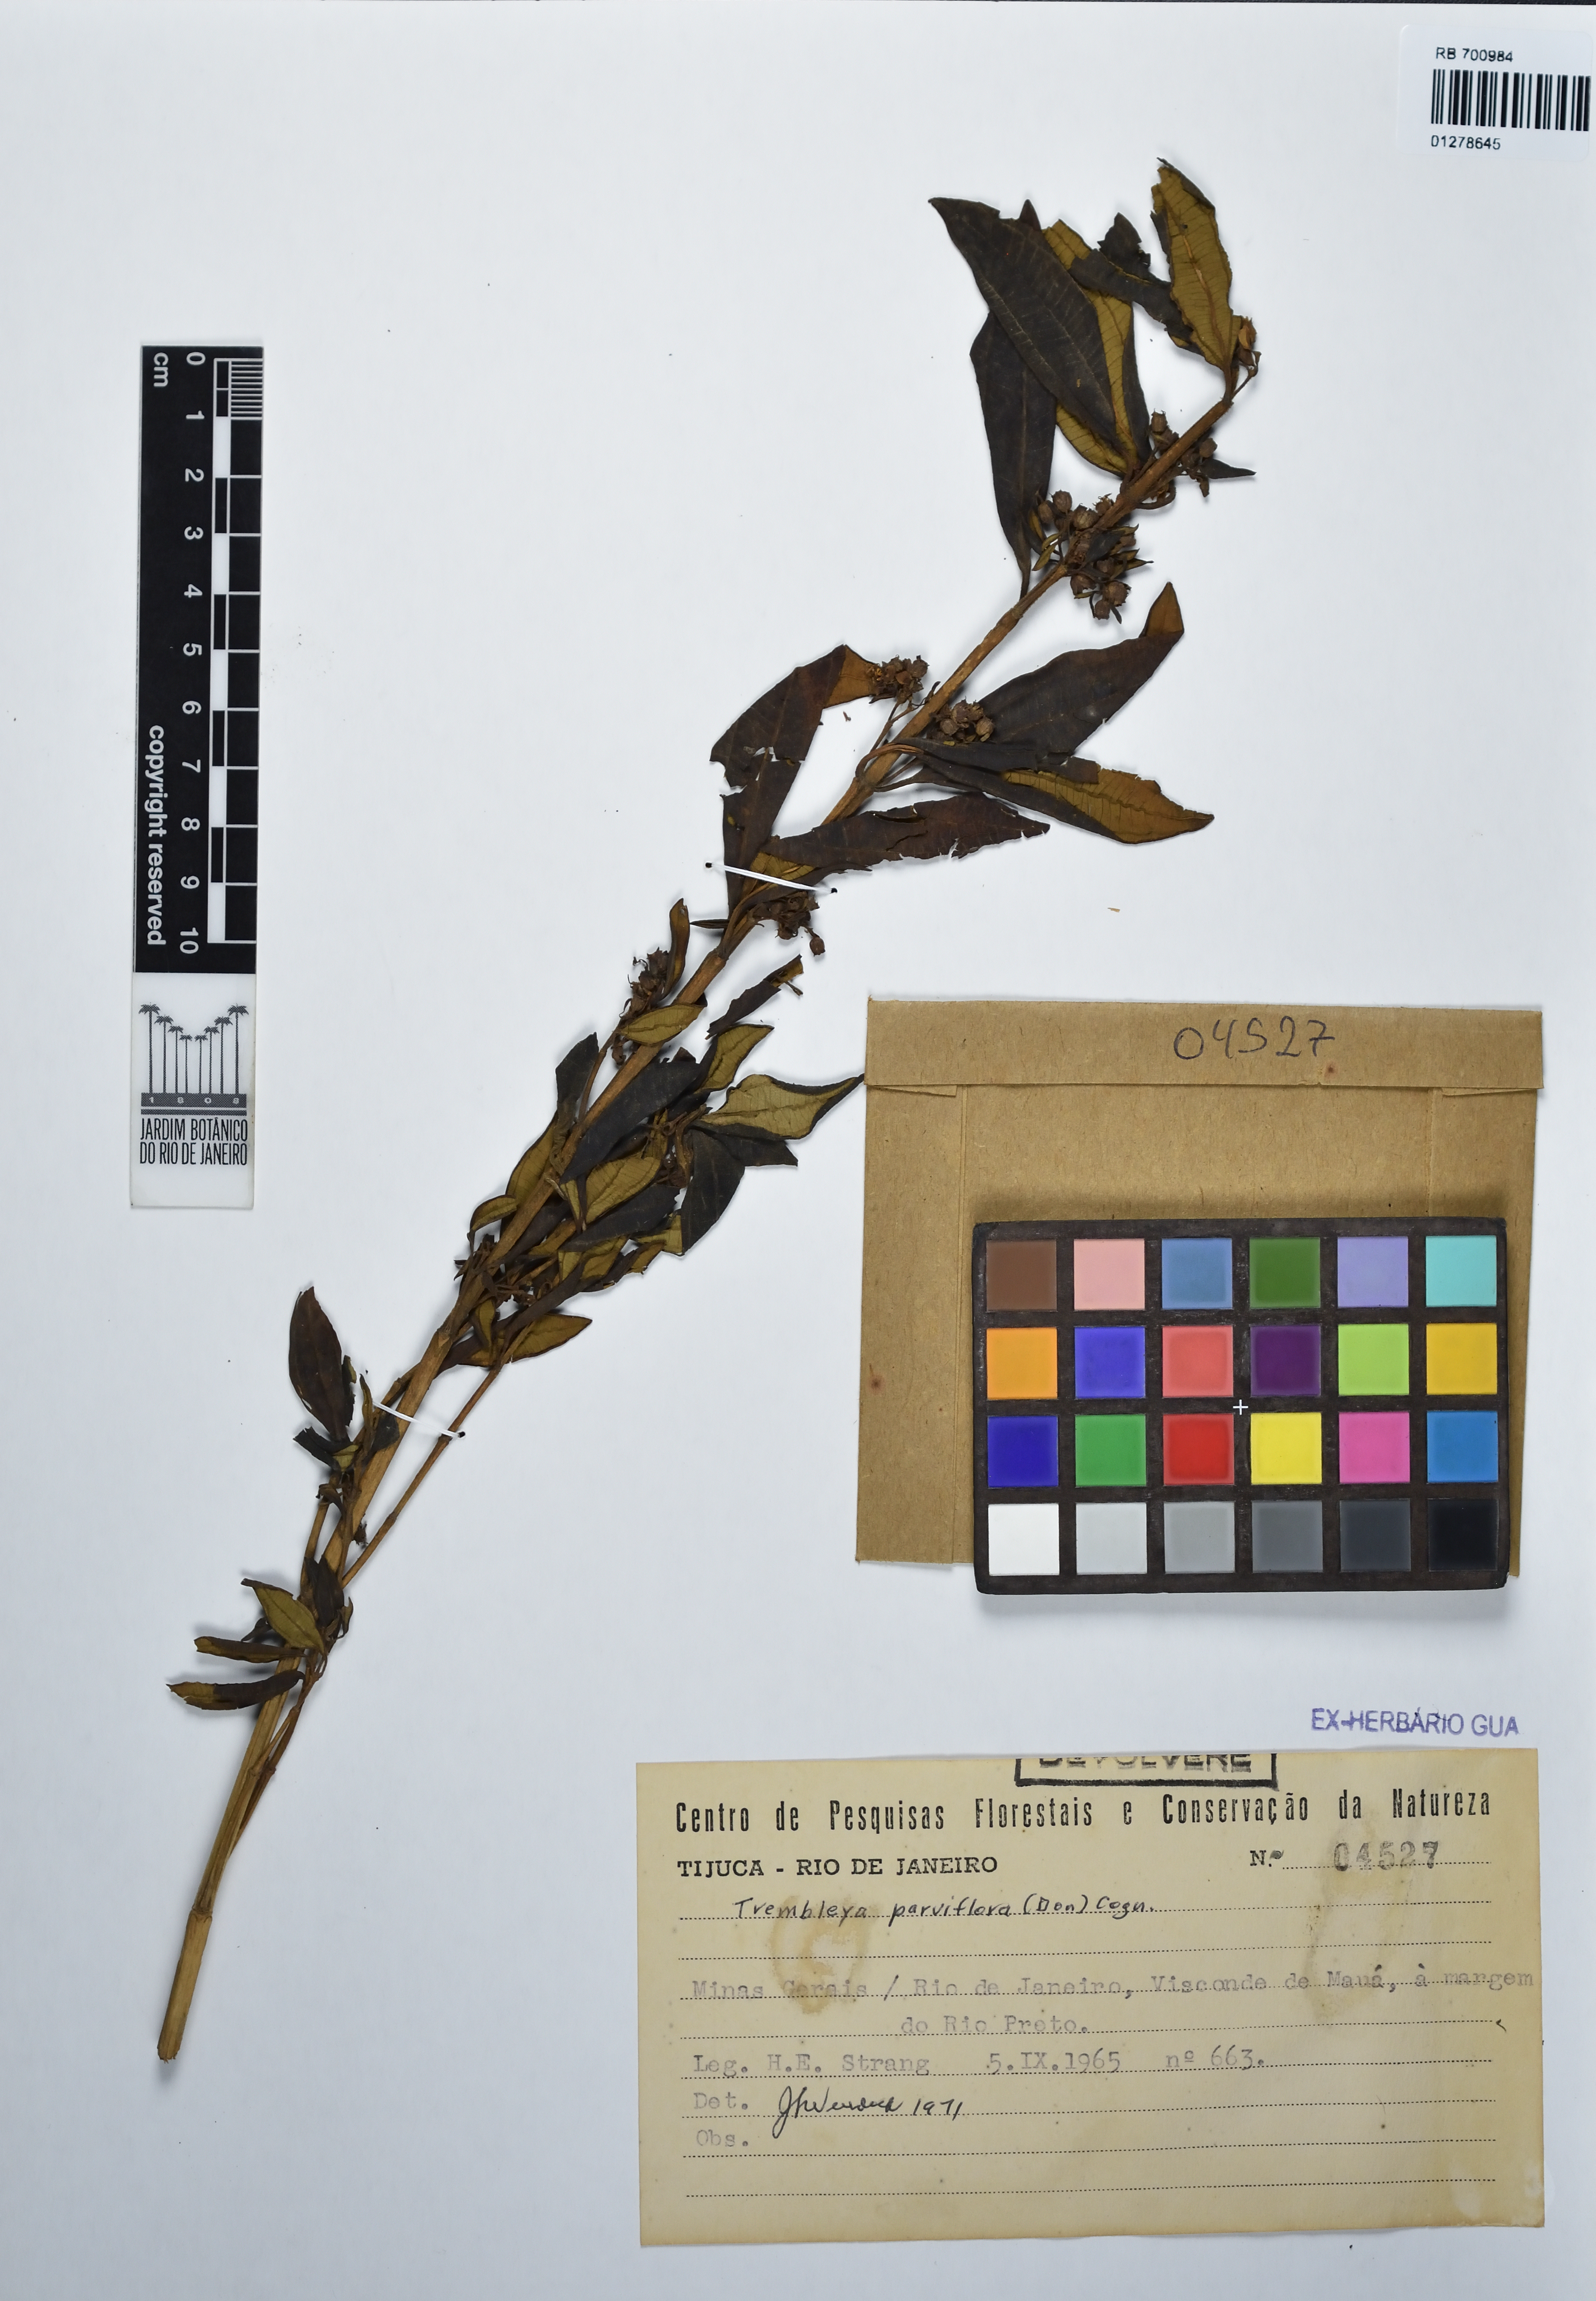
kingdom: Plantae
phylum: Tracheophyta
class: Magnoliopsida
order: Myrtales
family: Melastomataceae
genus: Microlicia
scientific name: Microlicia parviflora
